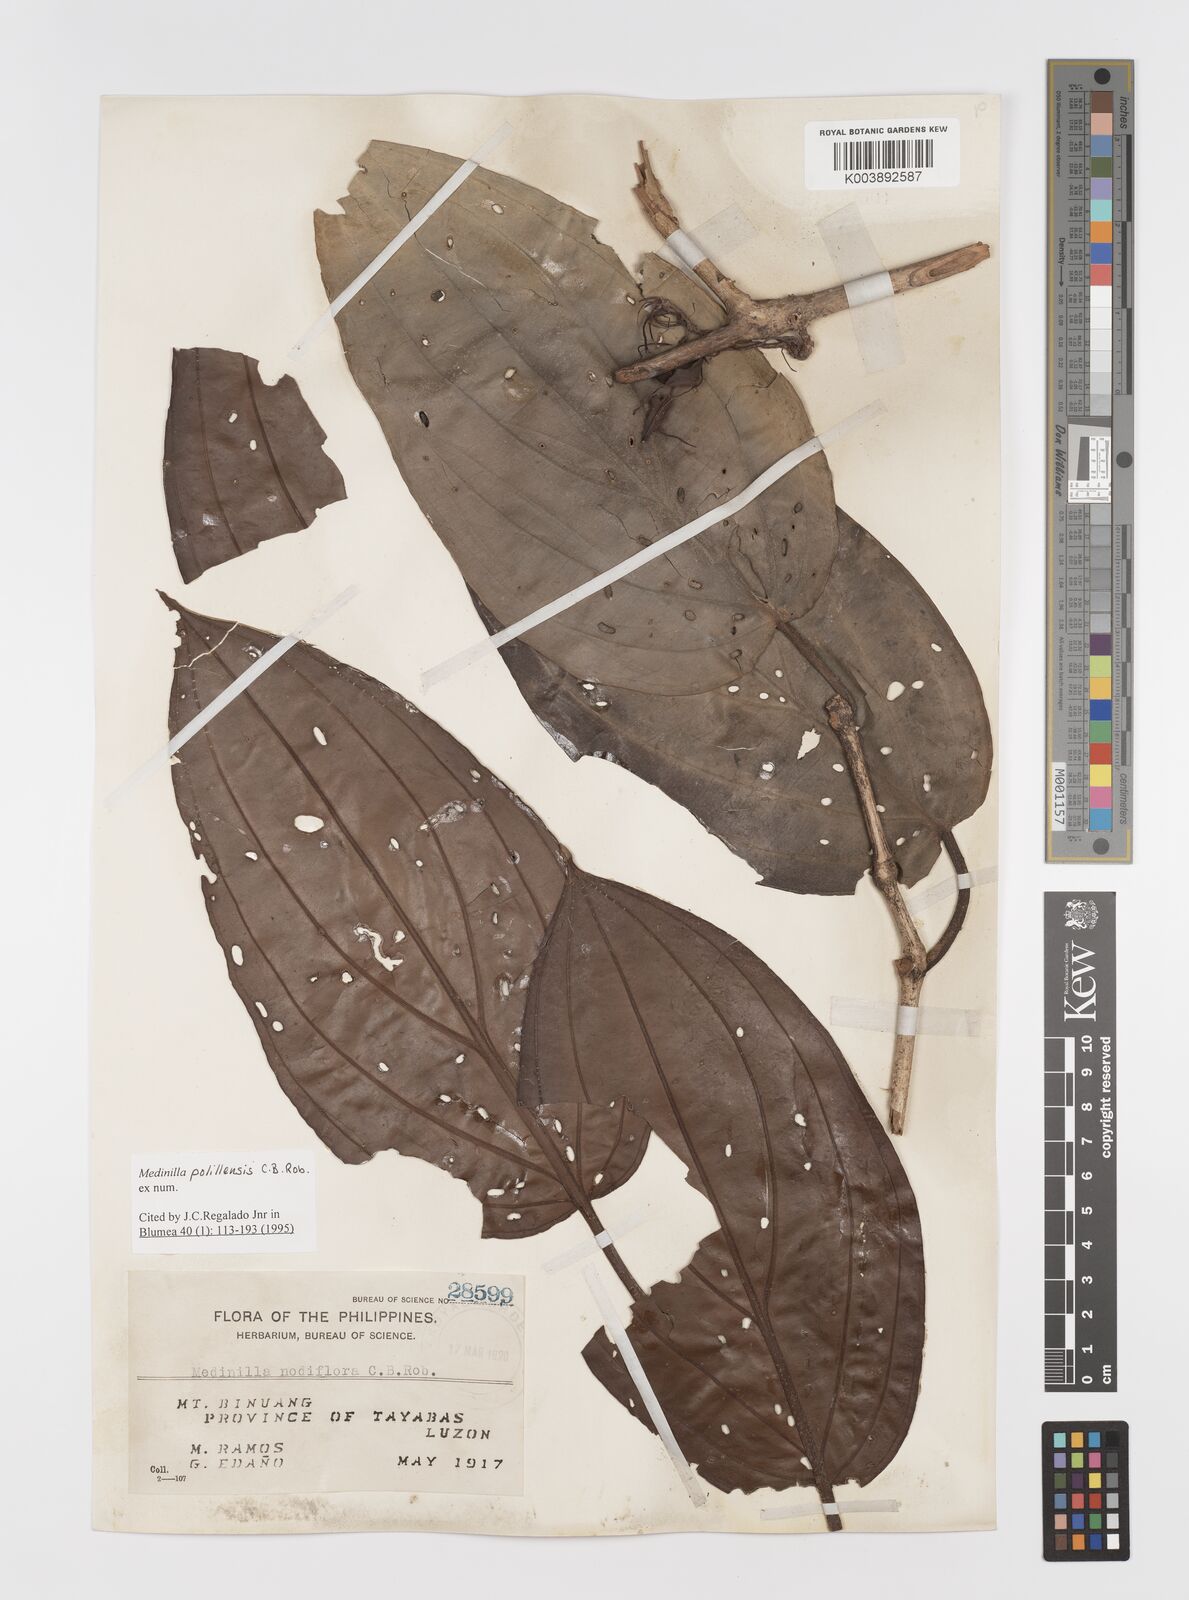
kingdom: Plantae
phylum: Tracheophyta
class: Magnoliopsida
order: Myrtales
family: Melastomataceae
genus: Medinilla
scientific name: Medinilla polillensis
